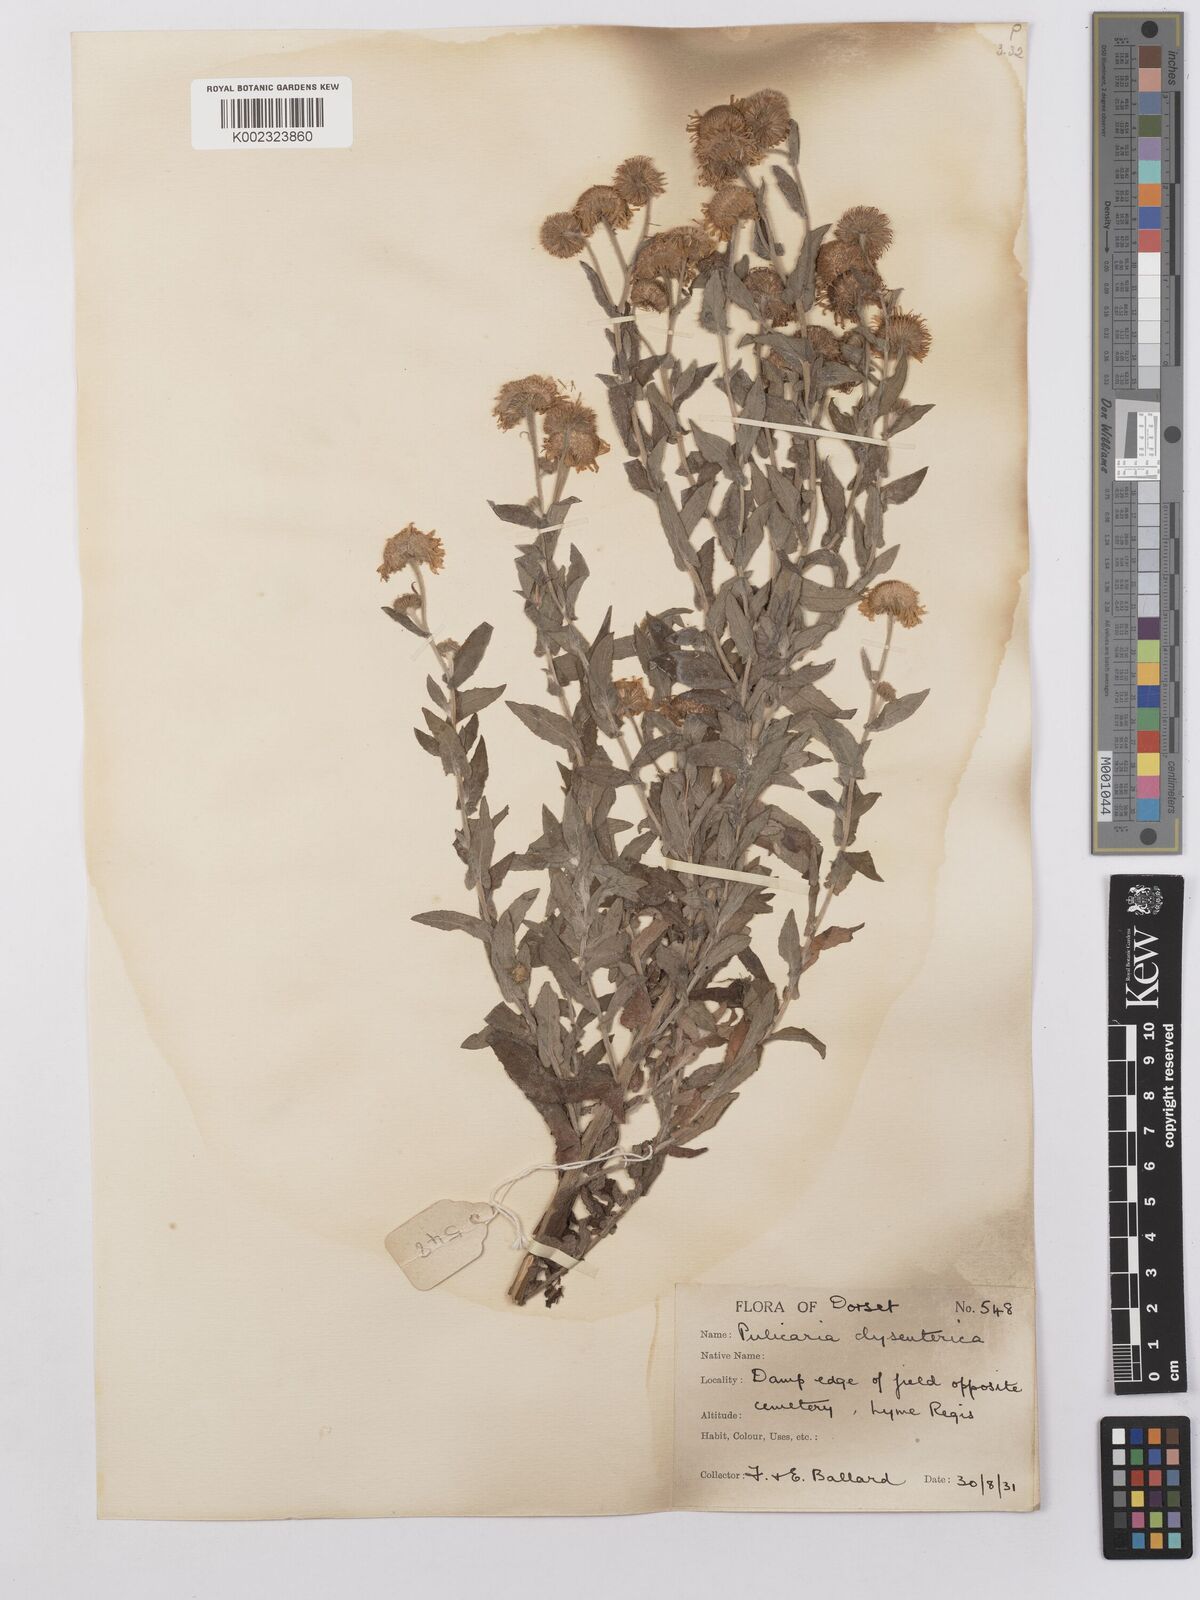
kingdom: Plantae
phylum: Tracheophyta
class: Magnoliopsida
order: Asterales
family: Asteraceae
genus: Pulicaria
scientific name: Pulicaria dysenterica
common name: Common fleabane
